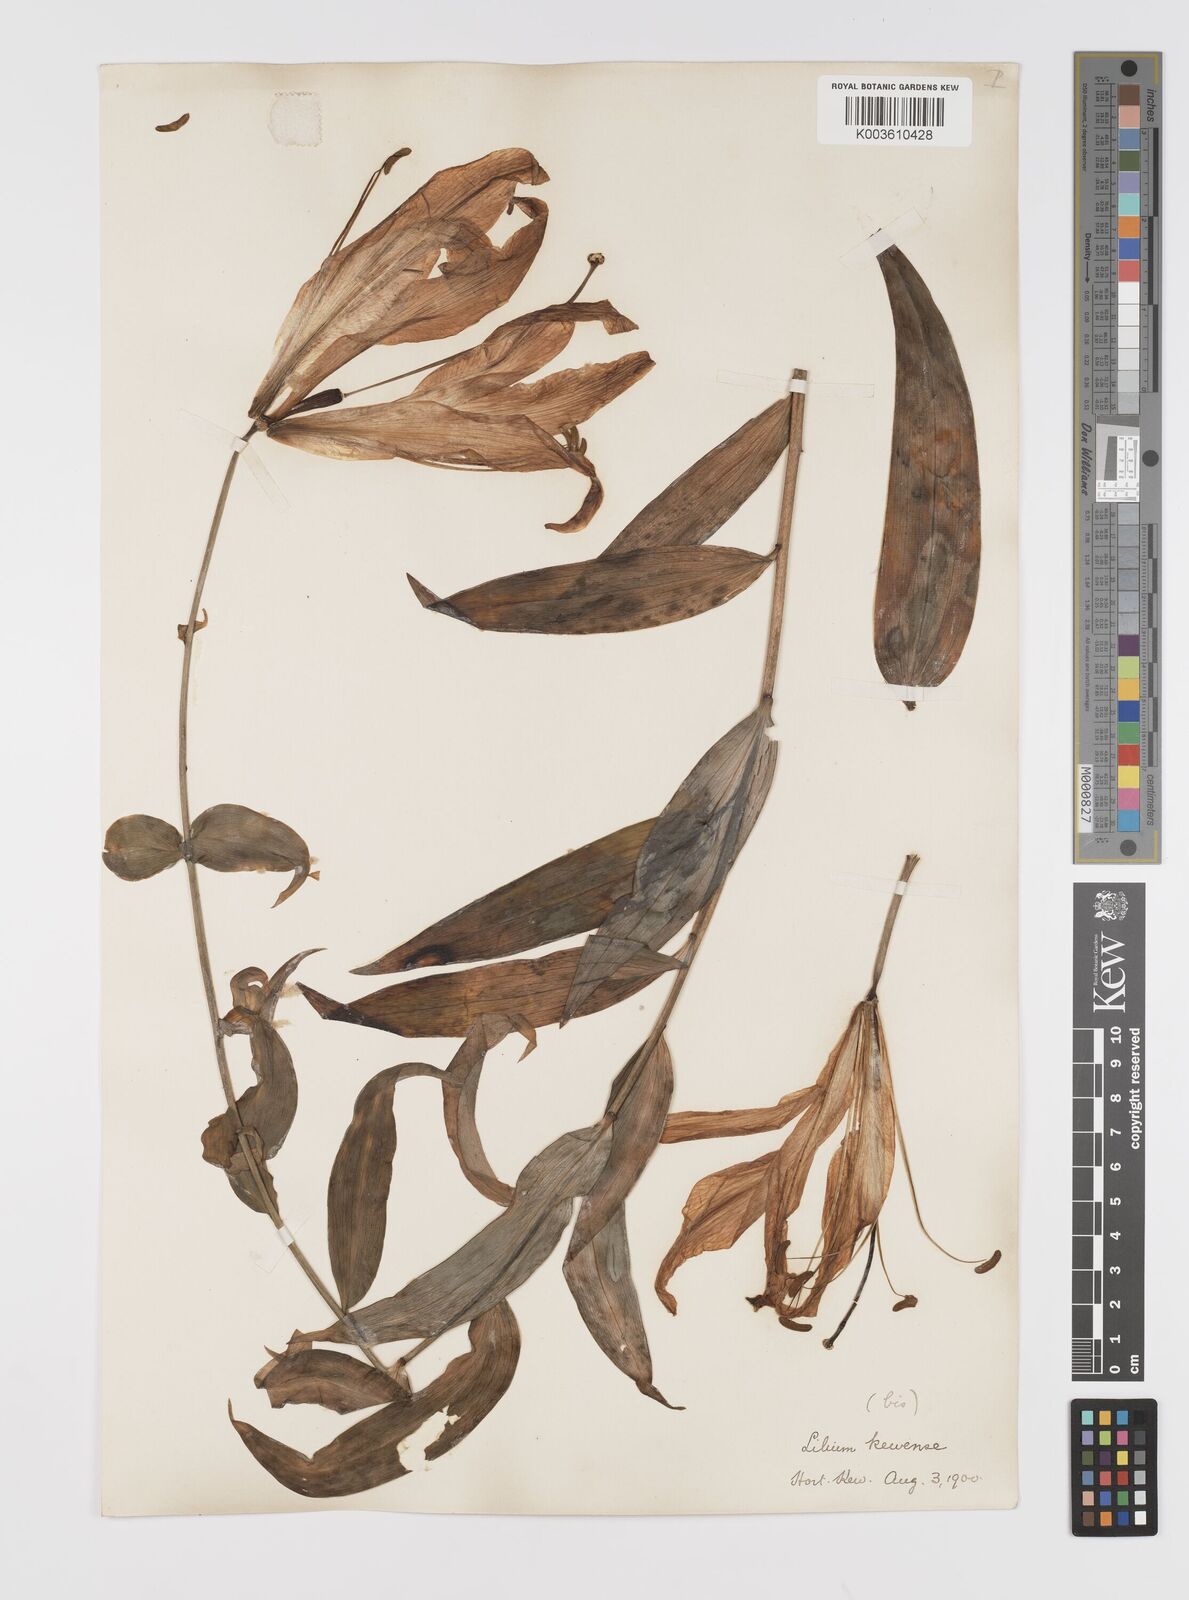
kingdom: Plantae
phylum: Tracheophyta
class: Liliopsida
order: Liliales
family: Liliaceae
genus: Lilium
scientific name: Lilium leucanthum
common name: Chinese white lily
